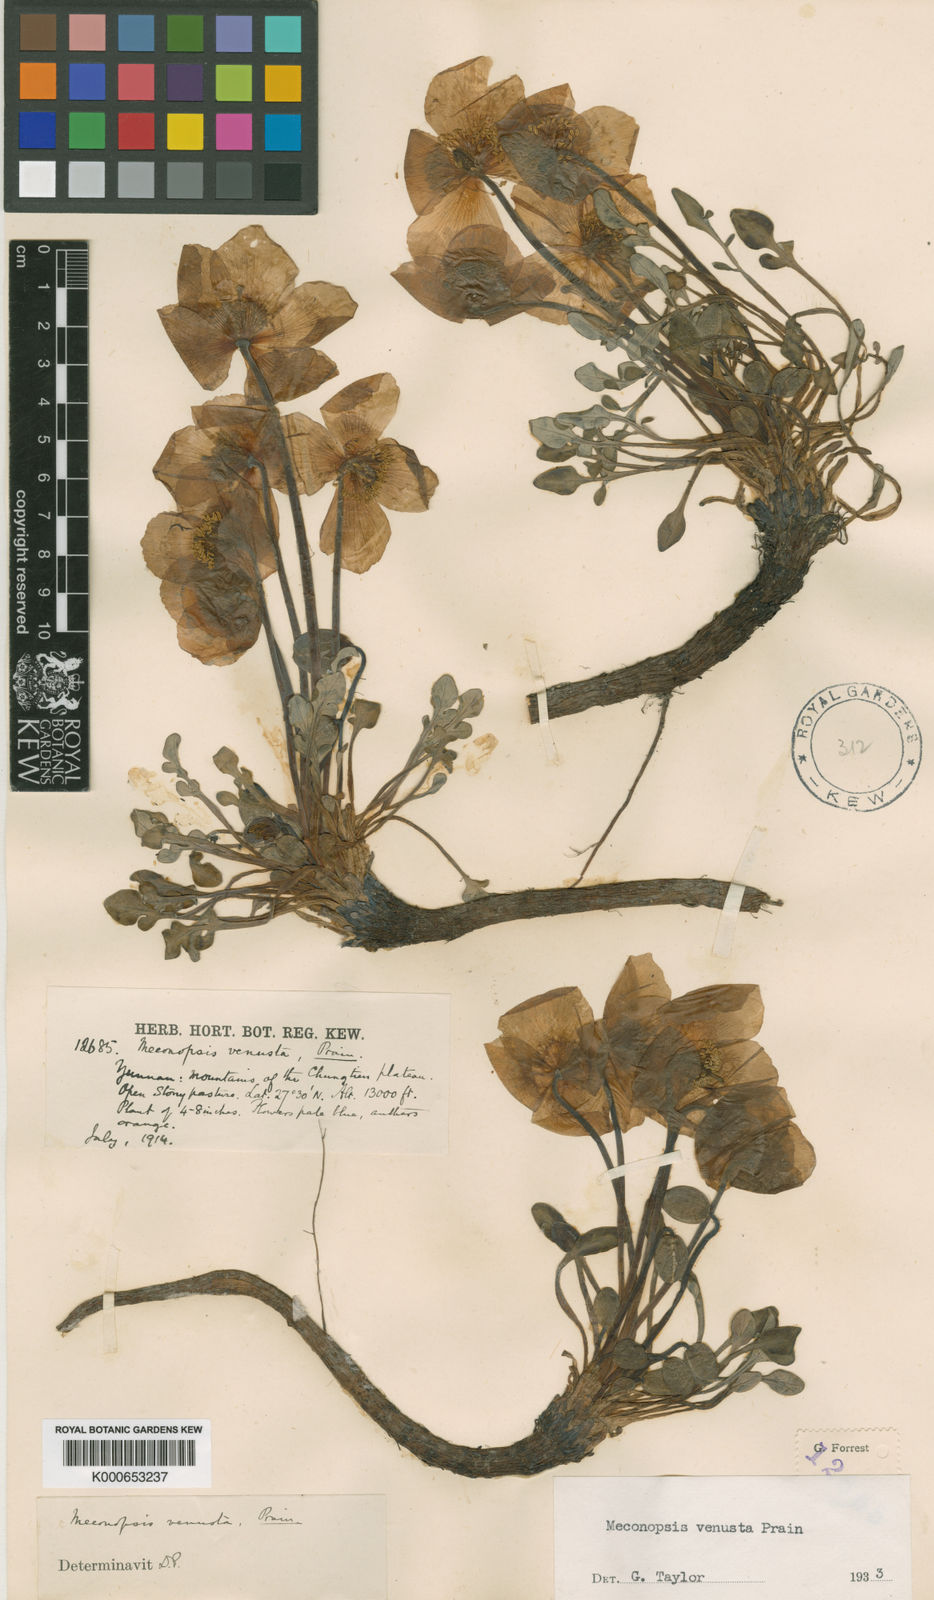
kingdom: Plantae
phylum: Tracheophyta
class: Magnoliopsida
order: Ranunculales
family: Papaveraceae
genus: Meconopsis
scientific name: Meconopsis venusta
